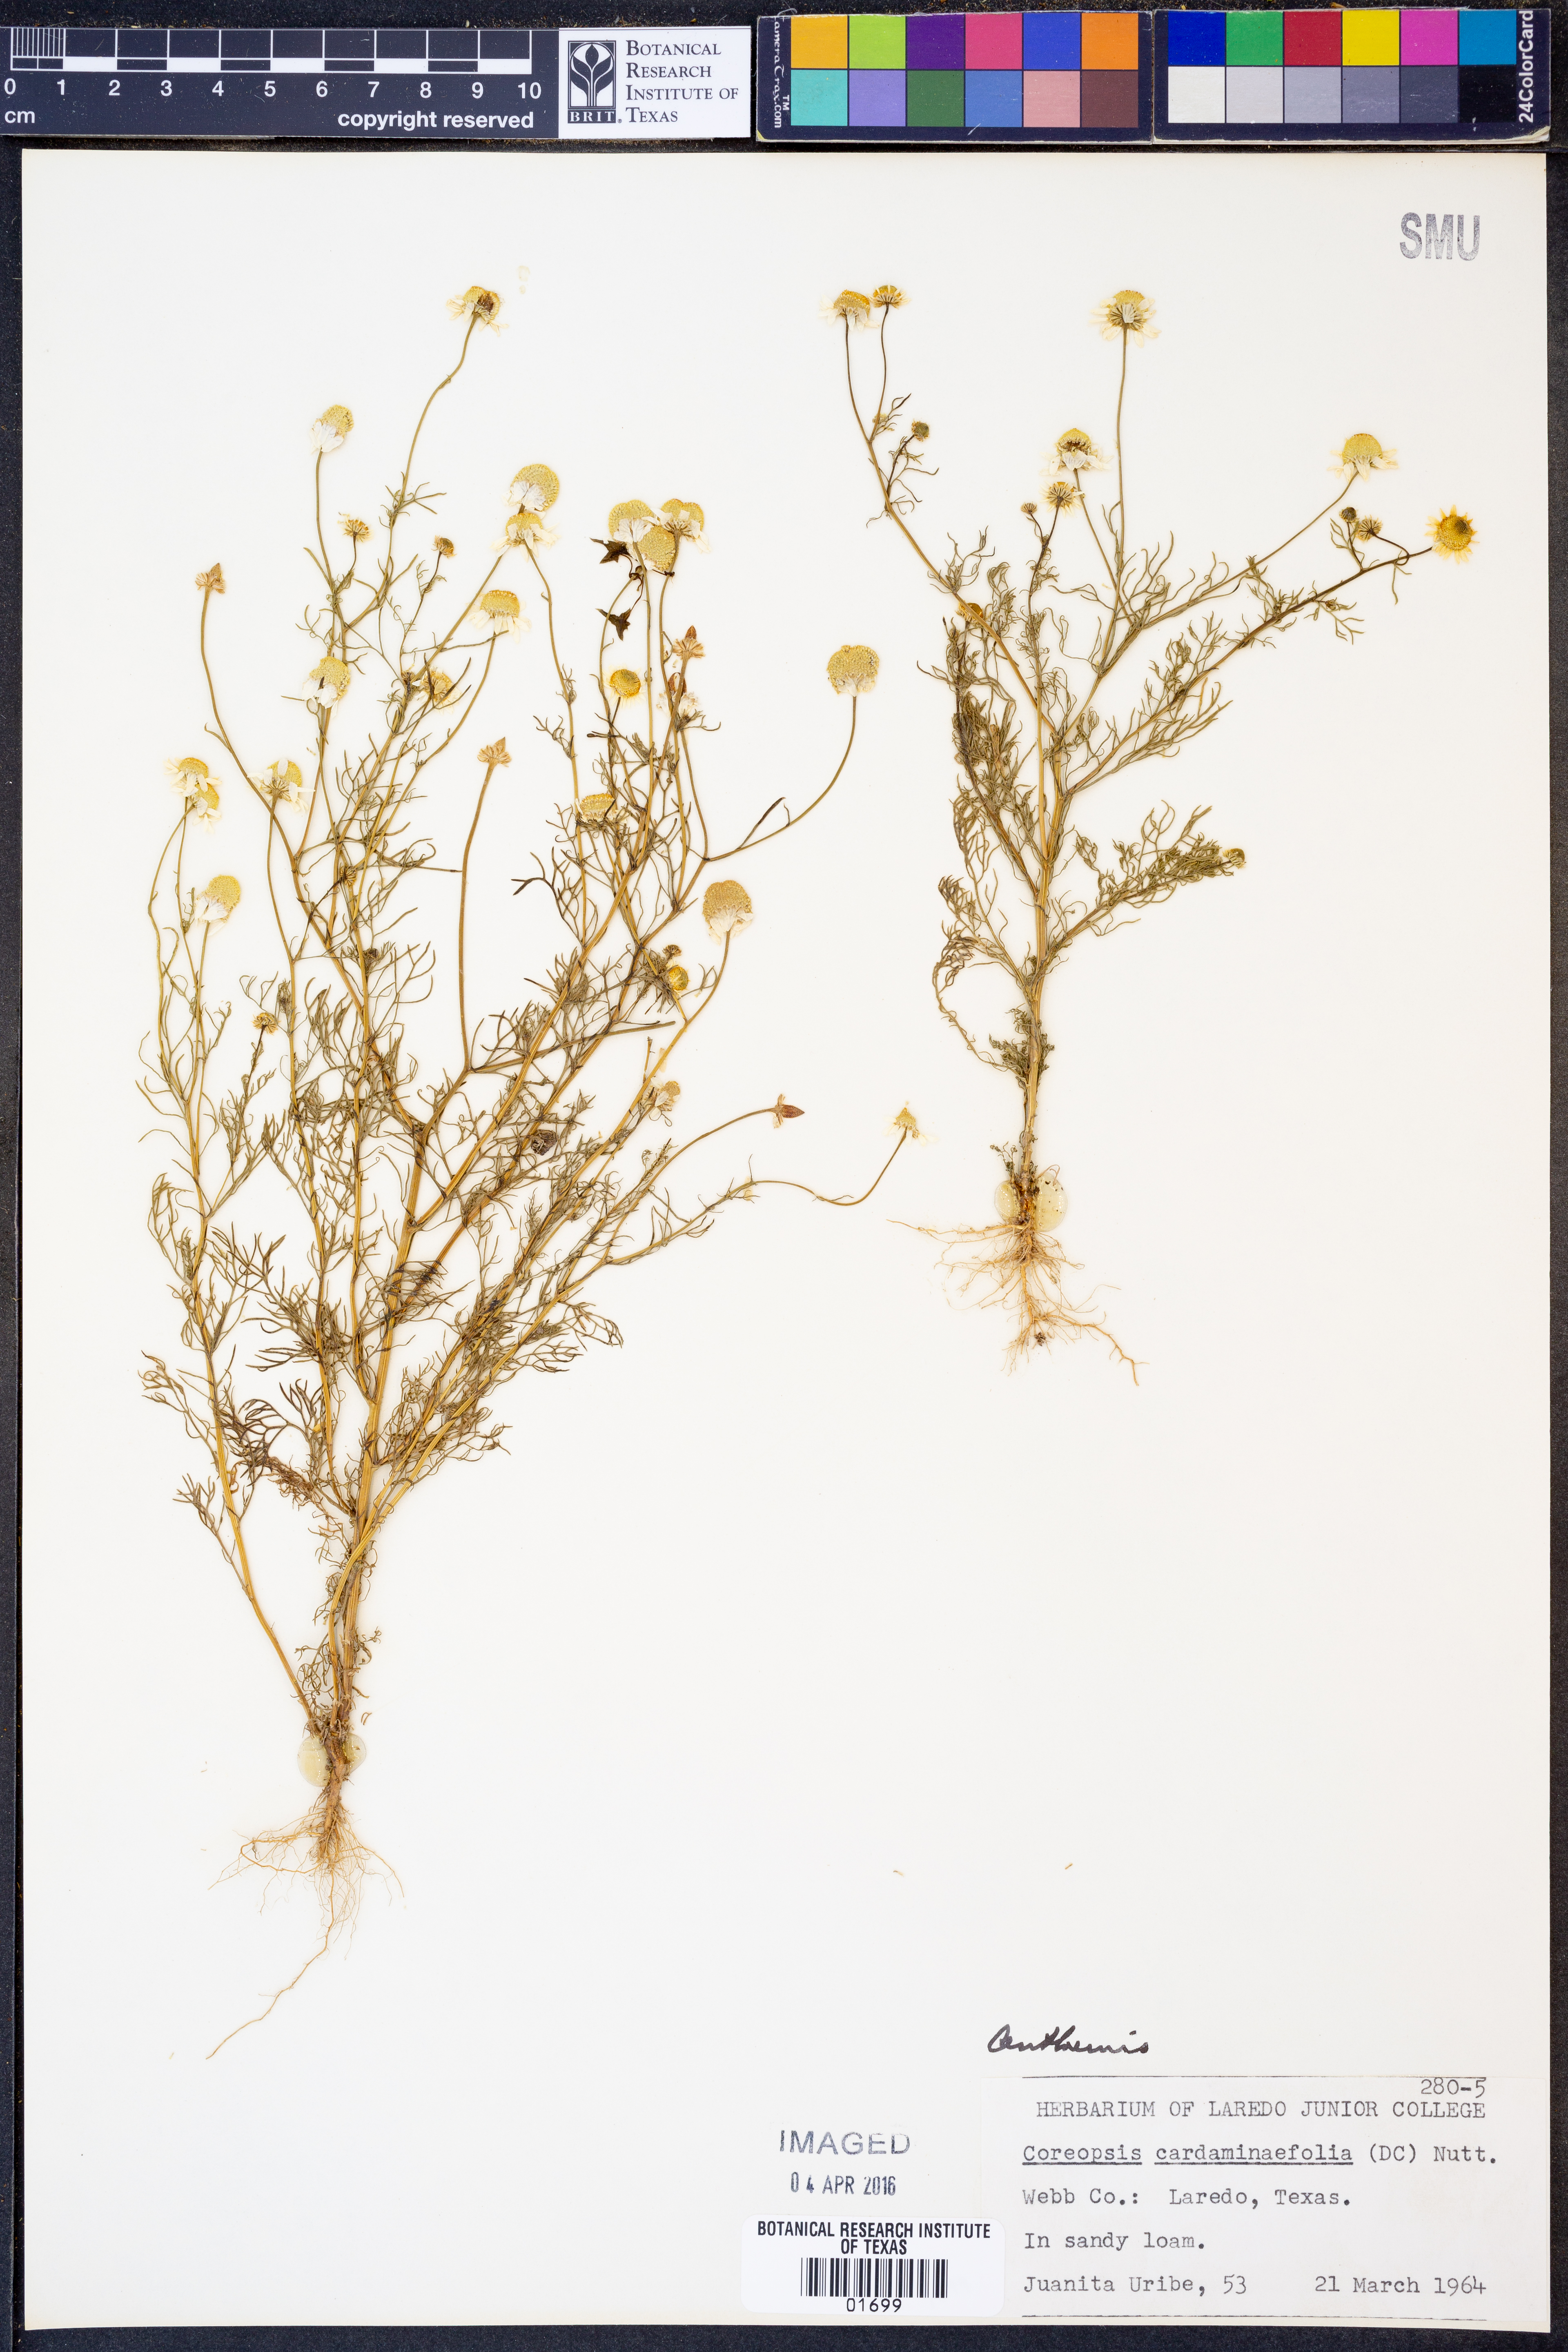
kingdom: Plantae
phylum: Tracheophyta
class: Magnoliopsida
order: Asterales
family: Asteraceae
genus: Anthemis
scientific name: Anthemis
